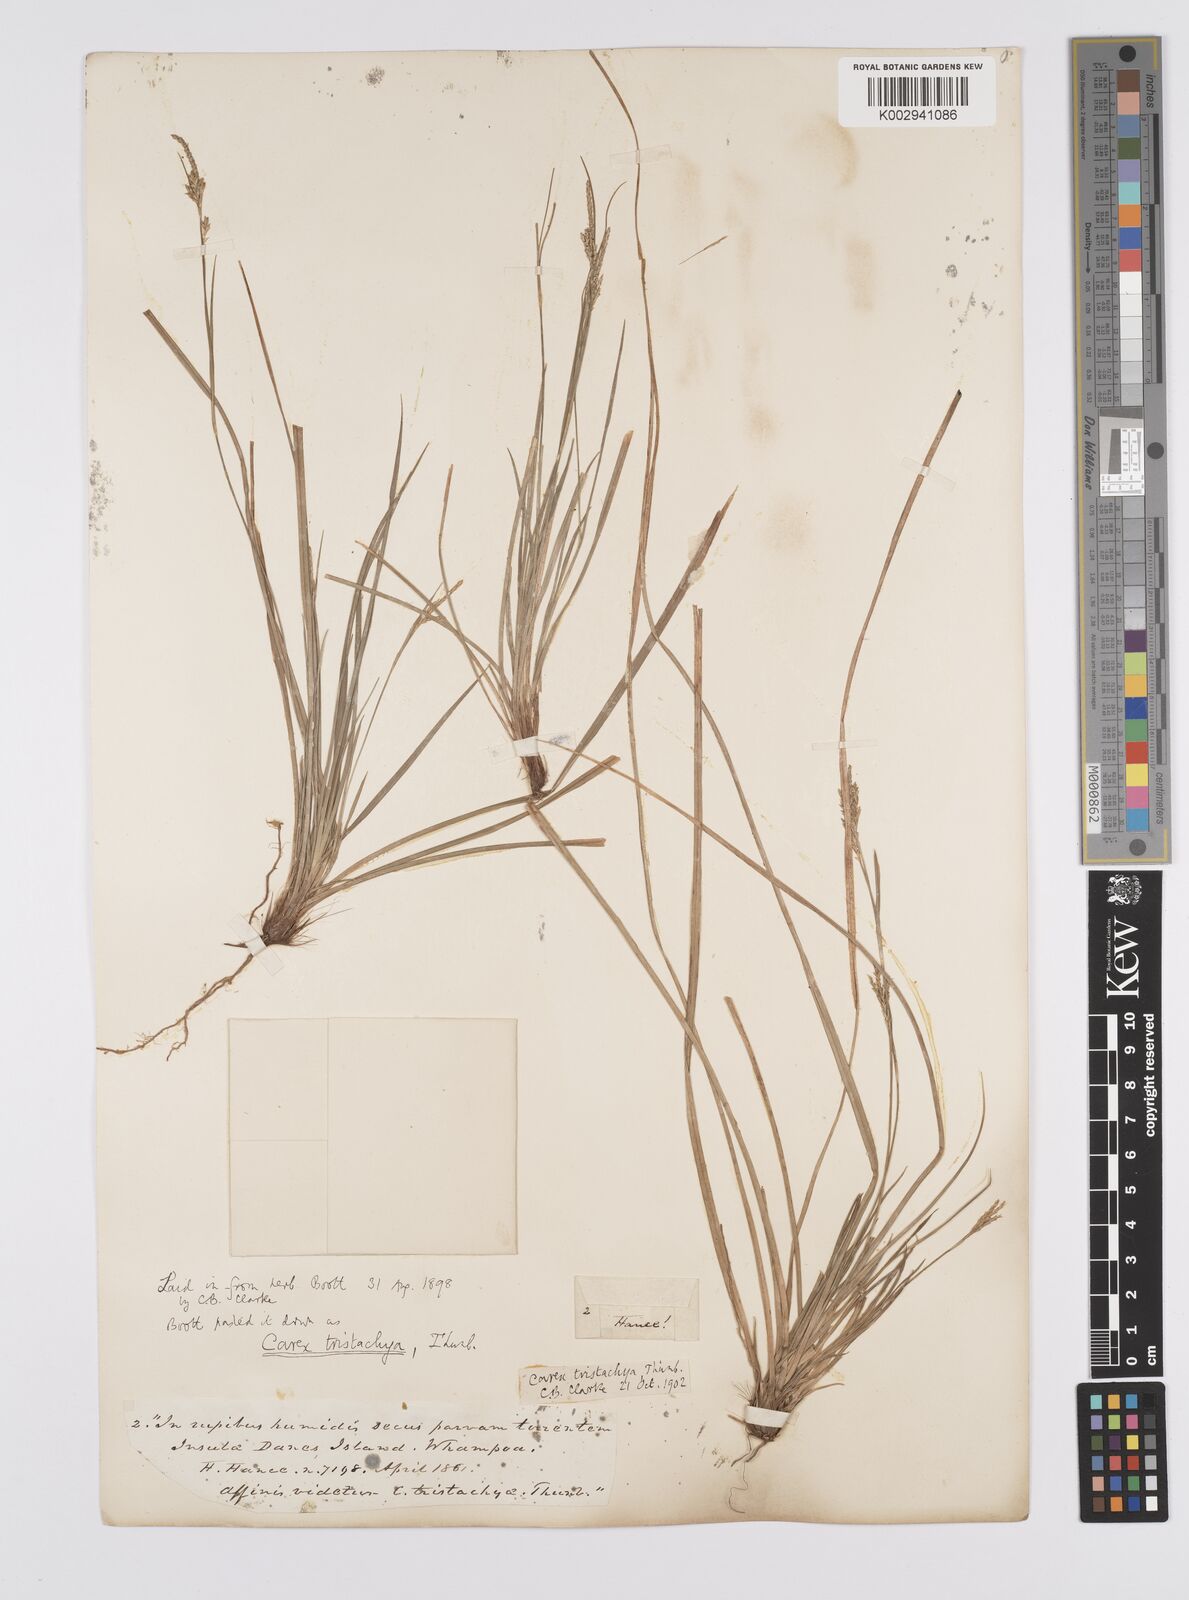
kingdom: Plantae
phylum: Tracheophyta
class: Liliopsida
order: Poales
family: Cyperaceae
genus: Carex
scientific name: Carex tristachya
